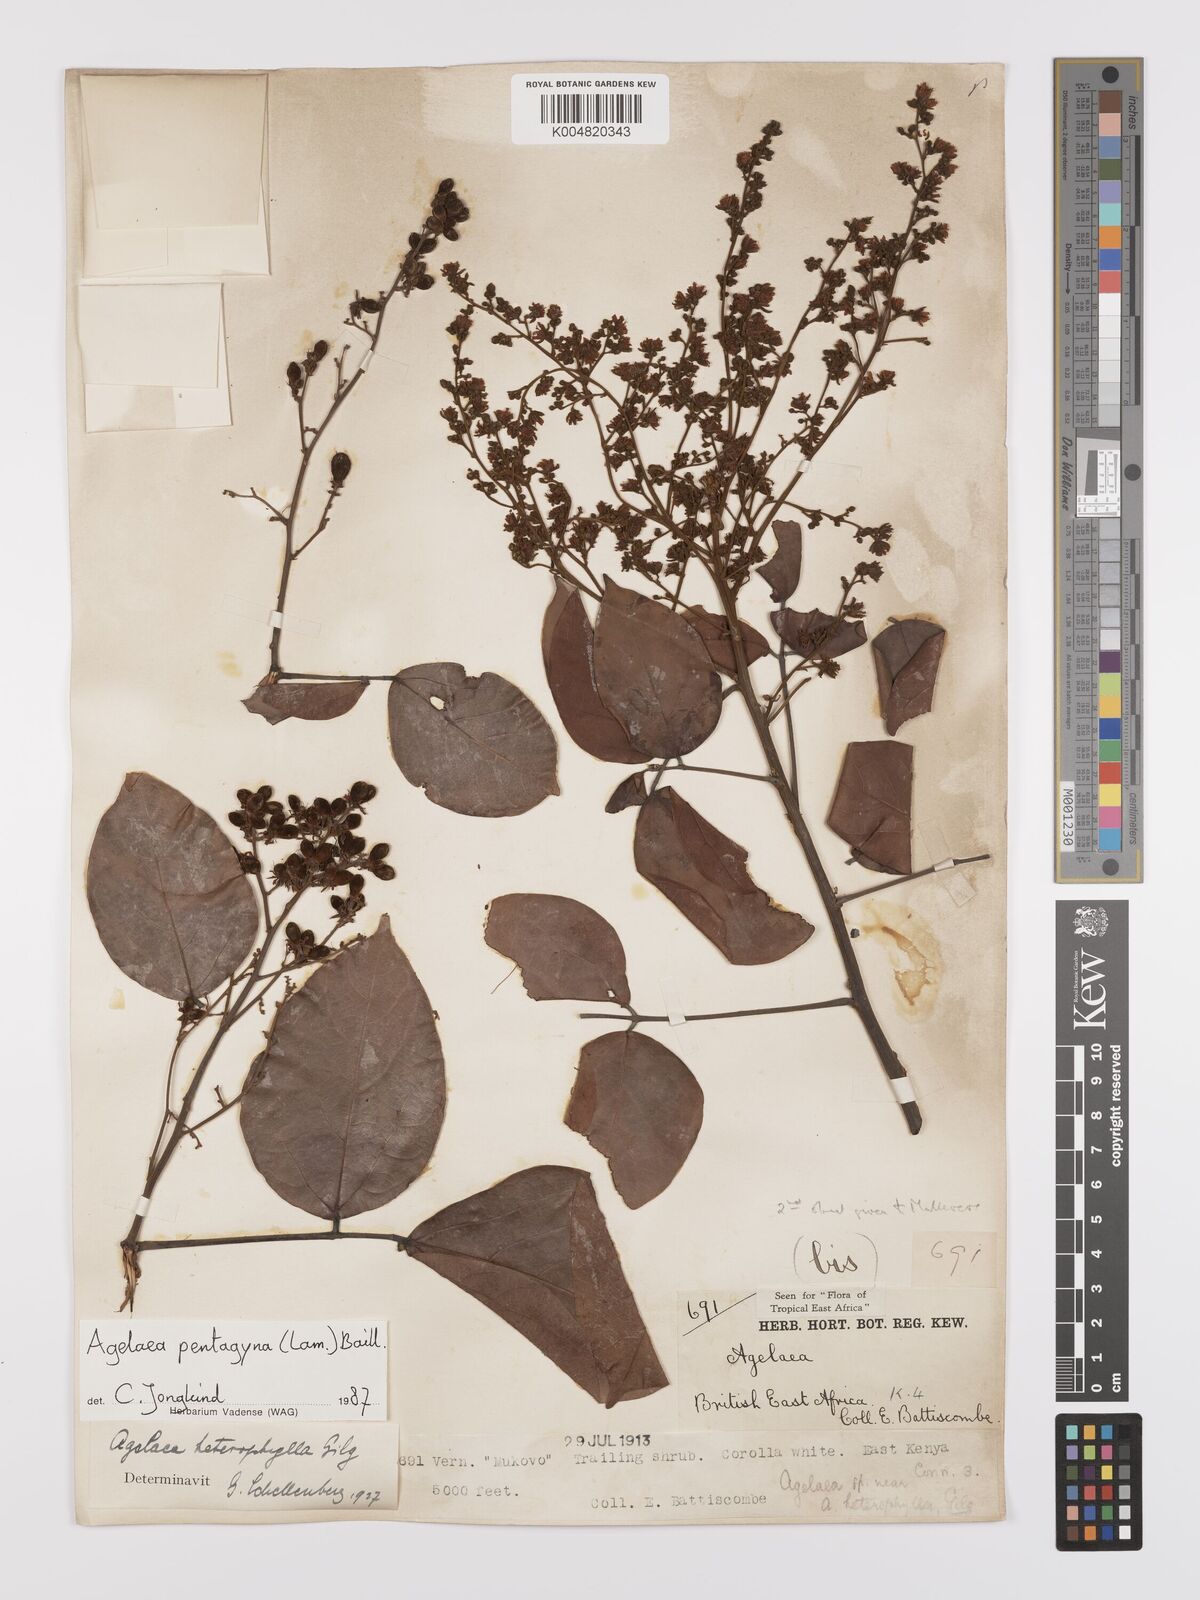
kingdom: Plantae
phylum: Tracheophyta
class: Magnoliopsida
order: Oxalidales
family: Connaraceae
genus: Agelaea
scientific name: Agelaea pentagyna
